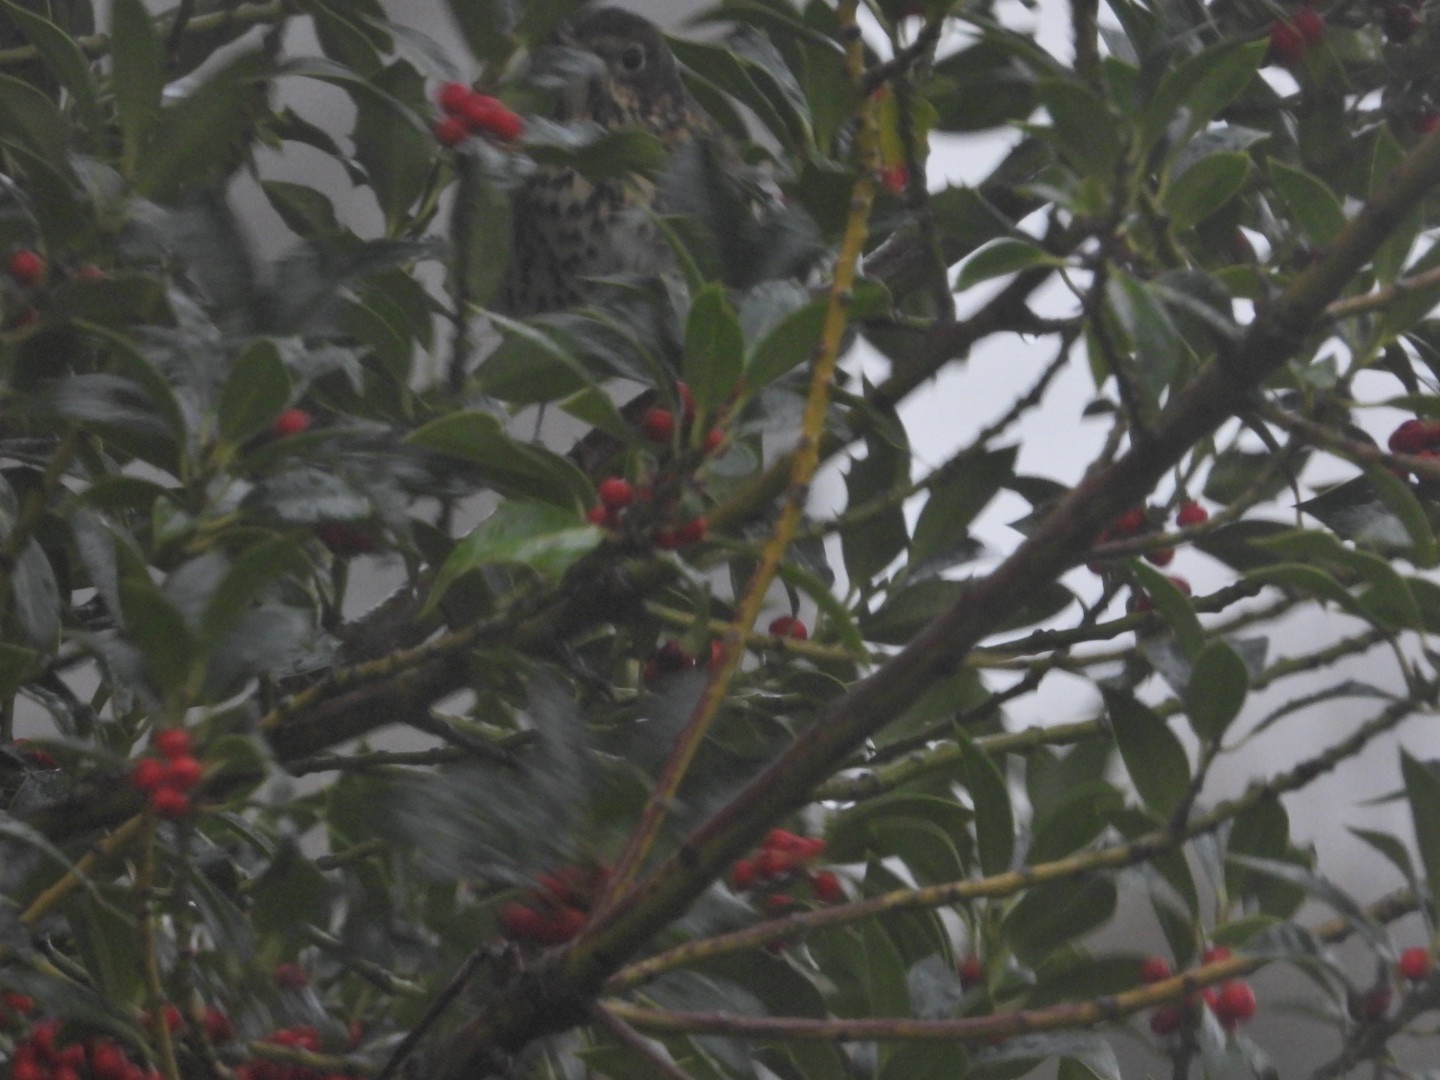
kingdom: Animalia
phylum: Chordata
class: Aves
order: Passeriformes
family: Turdidae
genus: Turdus
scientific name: Turdus philomelos
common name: Sangdrossel
